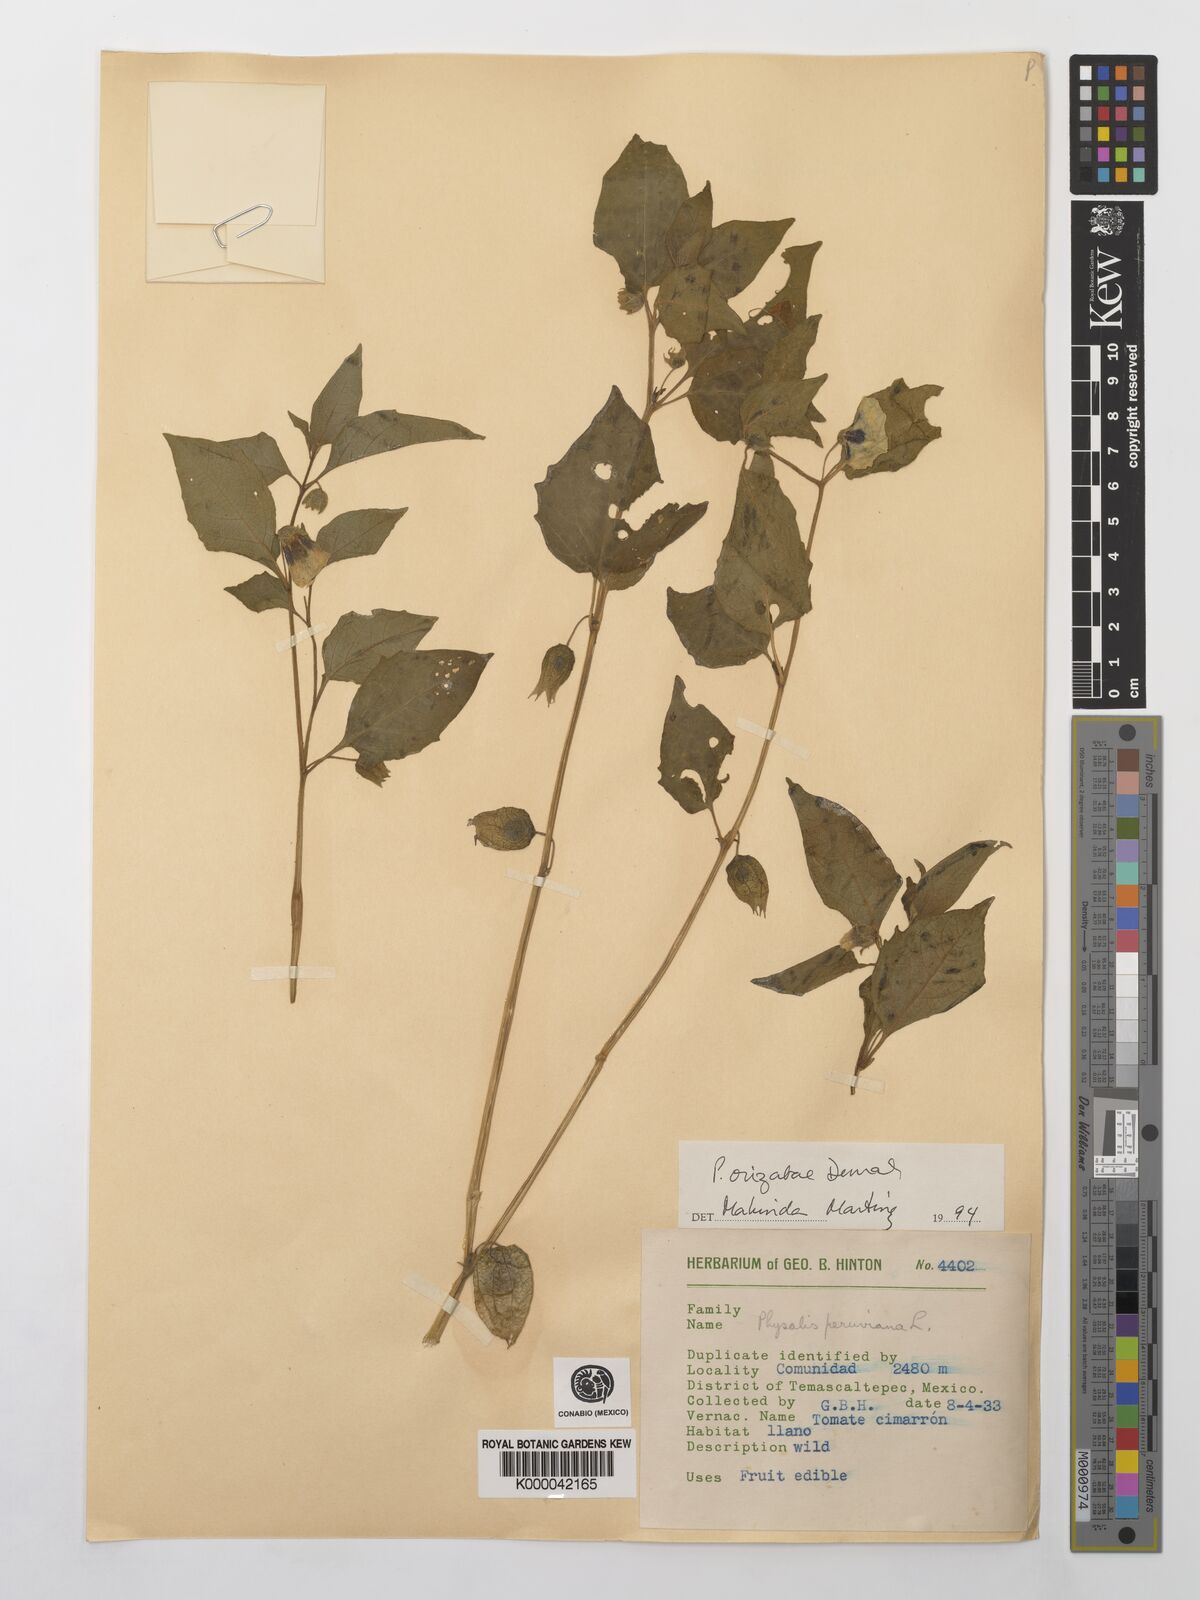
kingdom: Plantae
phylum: Tracheophyta
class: Magnoliopsida
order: Solanales
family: Solanaceae
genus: Physalis
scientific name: Physalis orizabae
